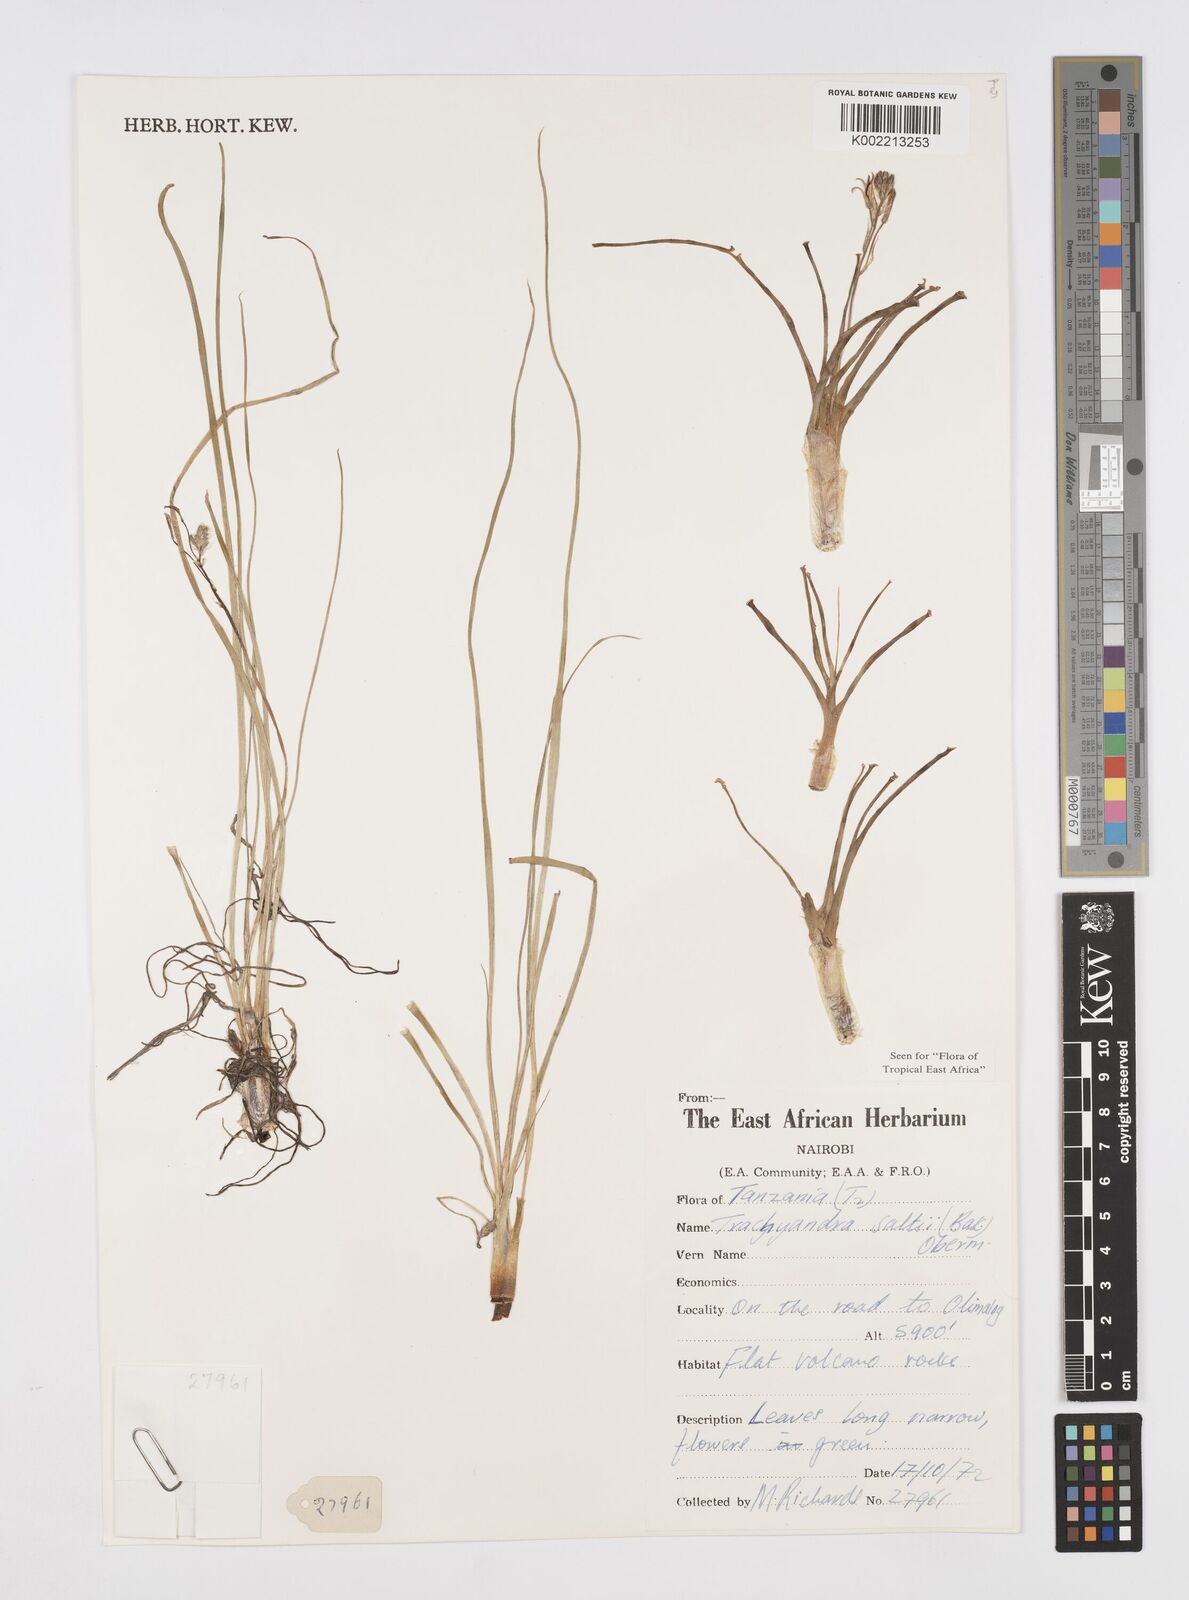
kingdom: Plantae
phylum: Tracheophyta
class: Liliopsida
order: Asparagales
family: Asphodelaceae
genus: Trachyandra
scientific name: Trachyandra saltii
